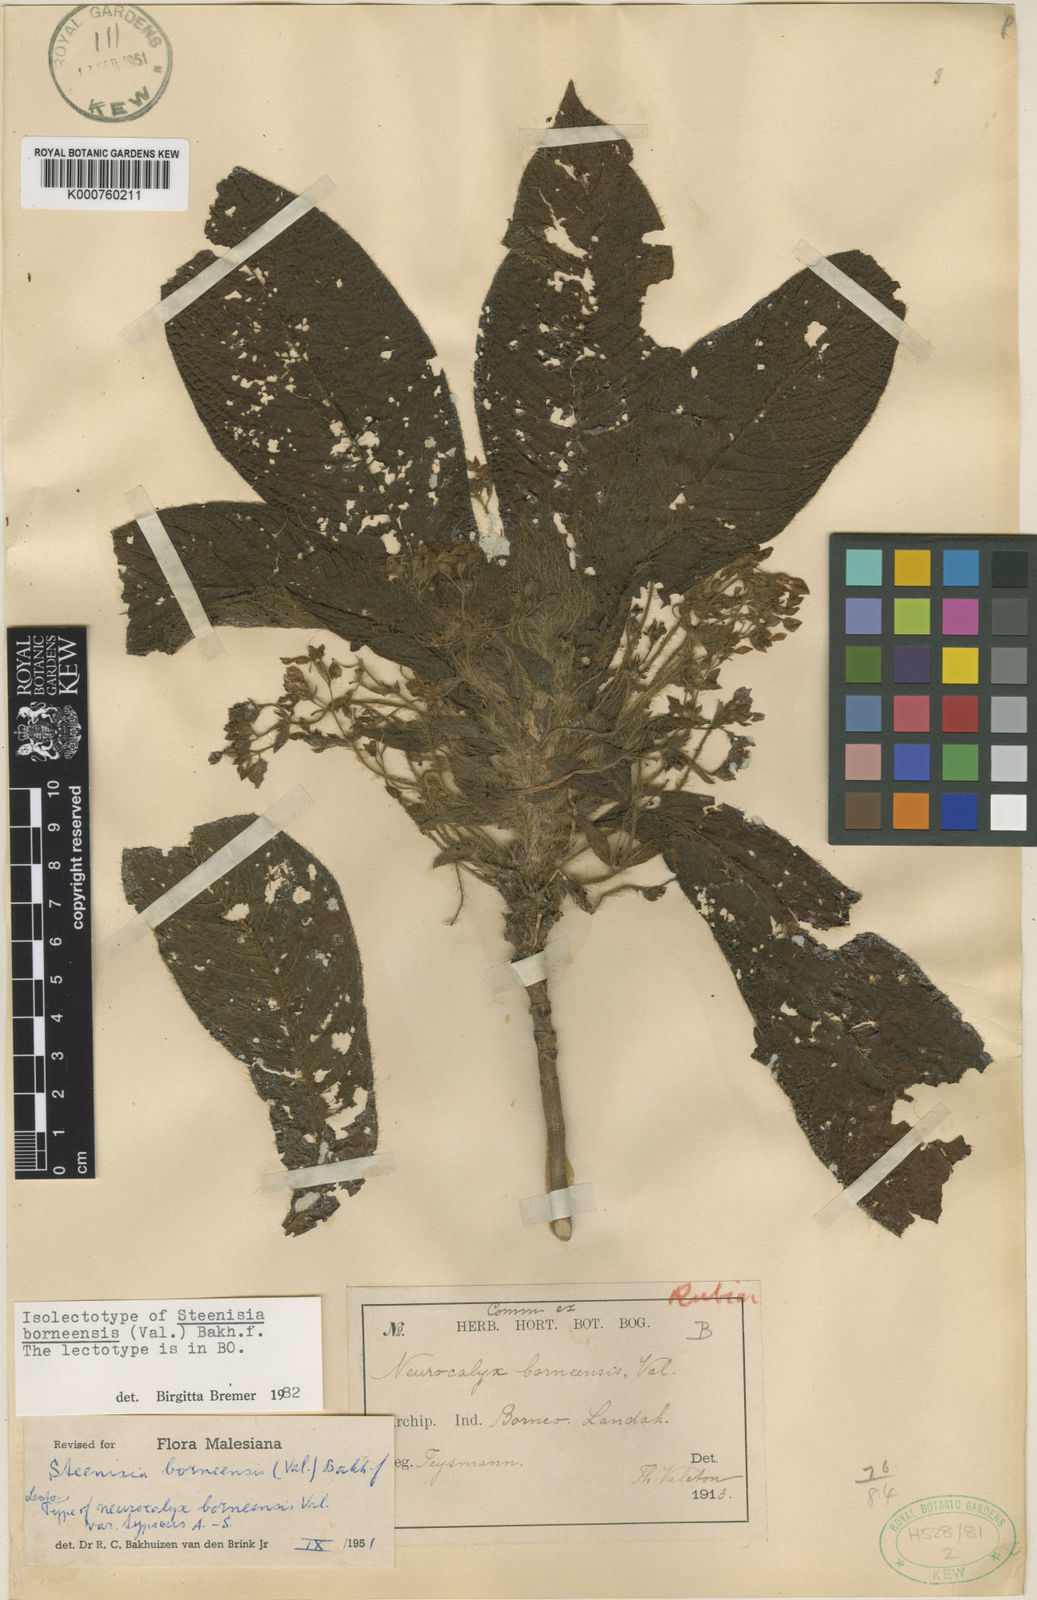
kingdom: Plantae
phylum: Tracheophyta
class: Magnoliopsida
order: Gentianales
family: Rubiaceae
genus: Steenisia
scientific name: Steenisia borneensis
